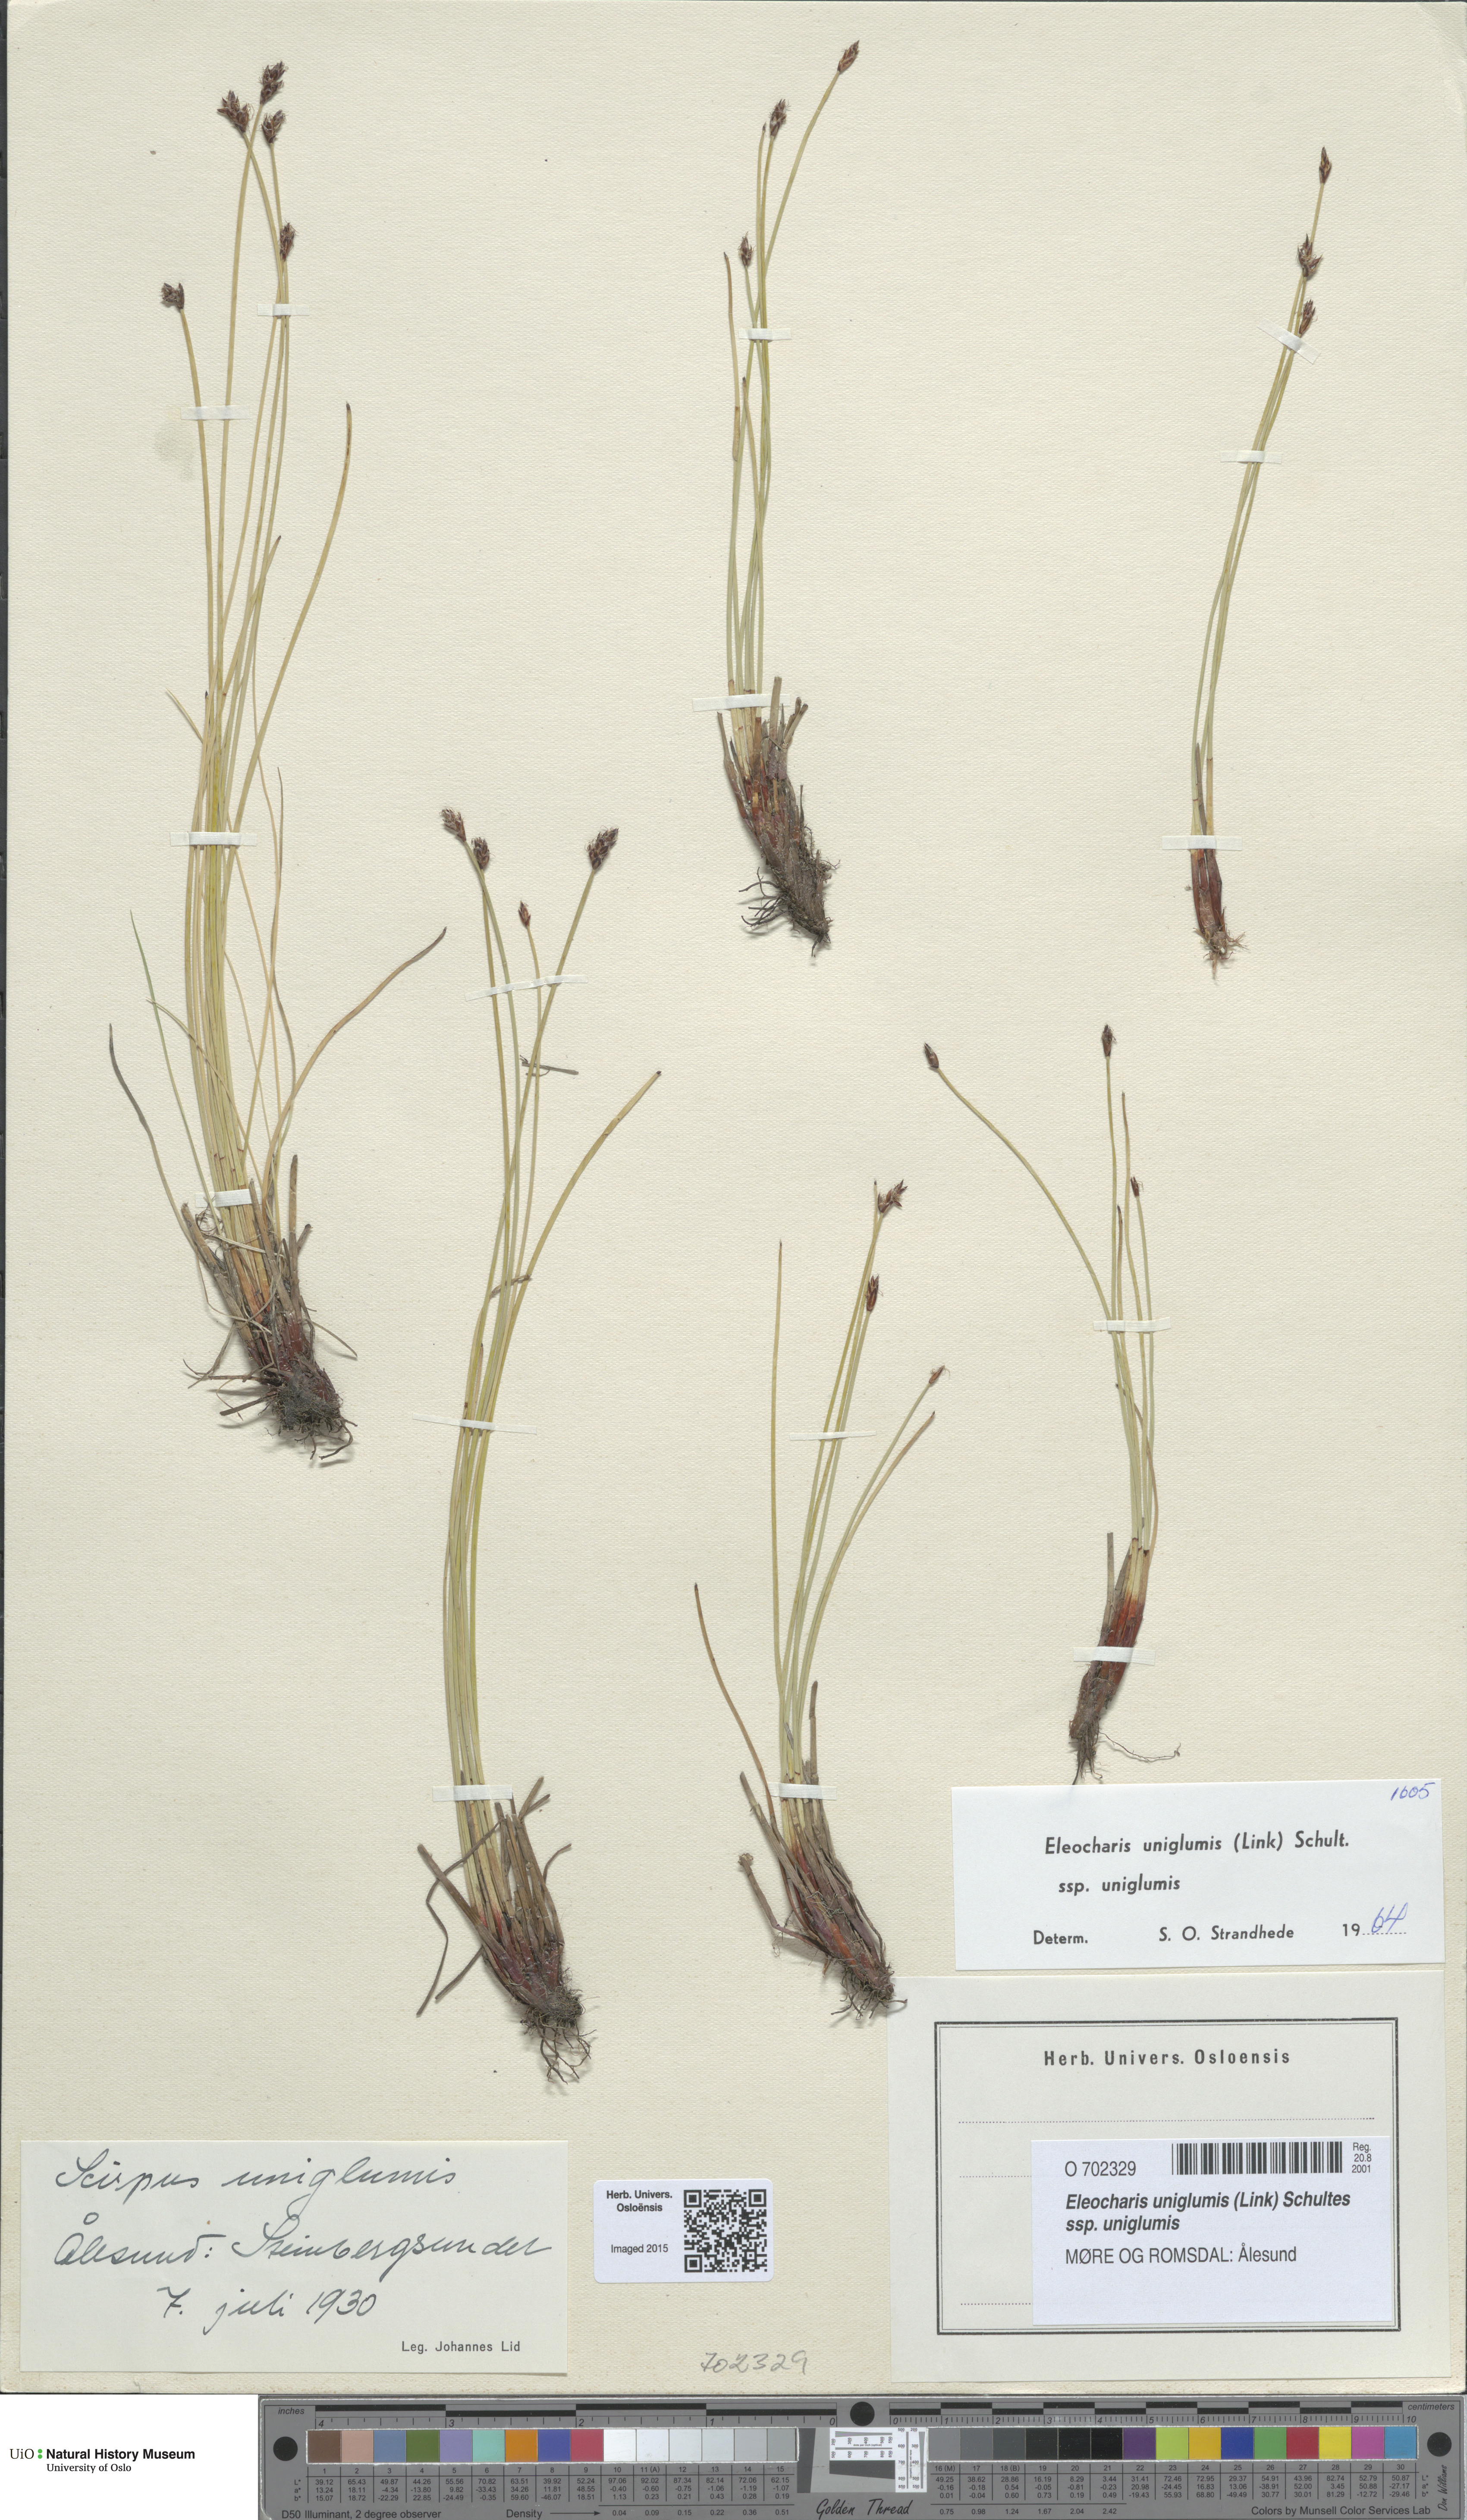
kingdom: Plantae
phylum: Tracheophyta
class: Liliopsida
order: Poales
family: Cyperaceae
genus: Eleocharis
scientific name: Eleocharis uniglumis
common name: Slender spike-rush
